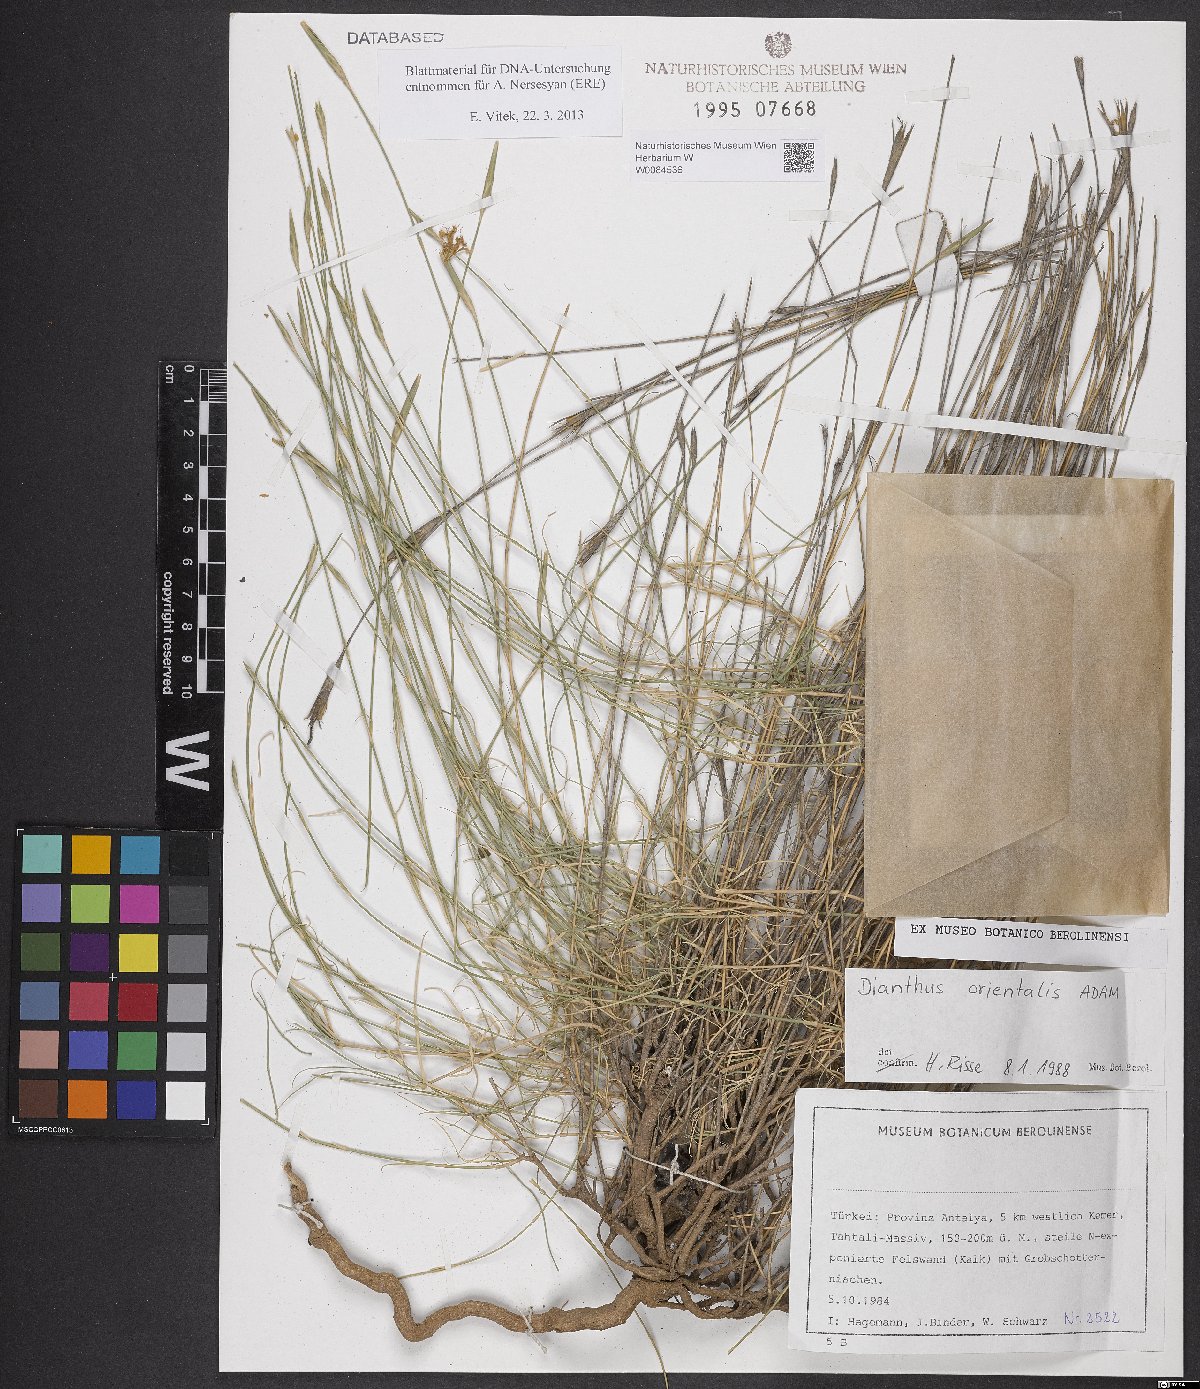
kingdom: Plantae
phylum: Tracheophyta
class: Magnoliopsida
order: Caryophyllales
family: Caryophyllaceae
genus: Dianthus
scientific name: Dianthus orientalis
